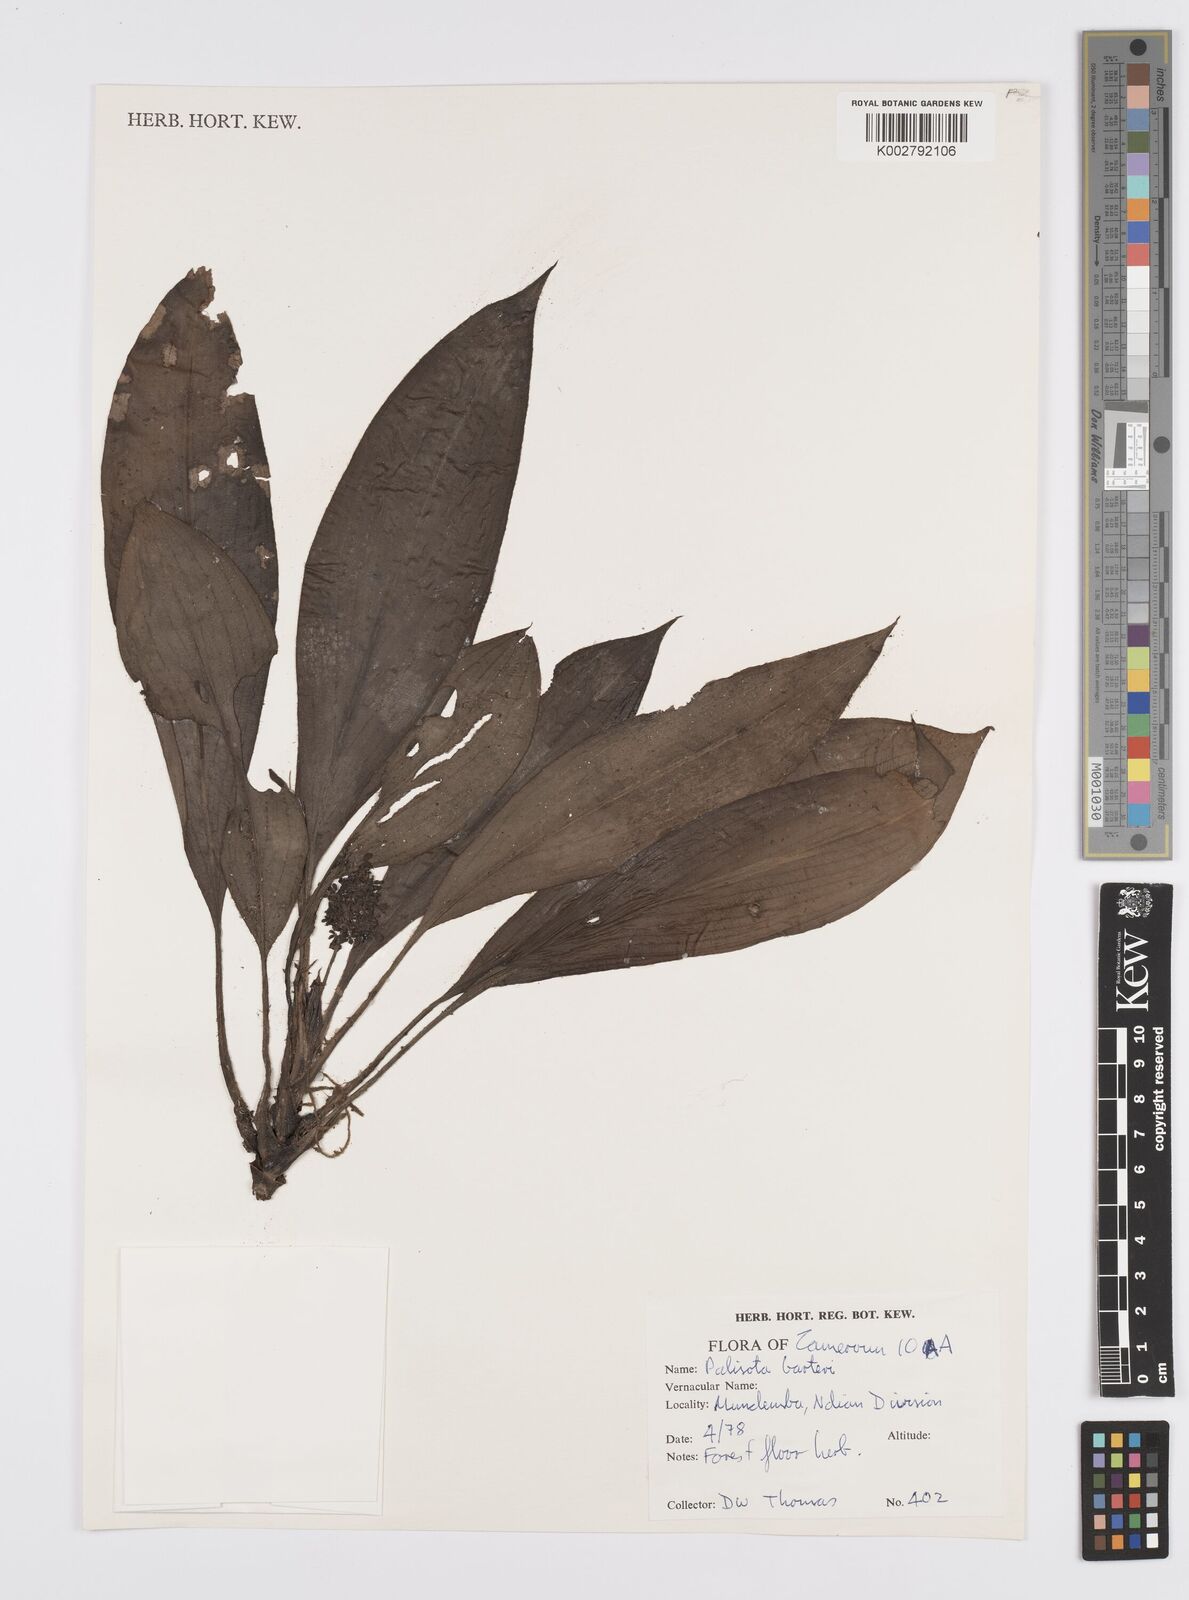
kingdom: Plantae
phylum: Tracheophyta
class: Liliopsida
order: Commelinales
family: Commelinaceae
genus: Palisota
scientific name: Palisota barteri
